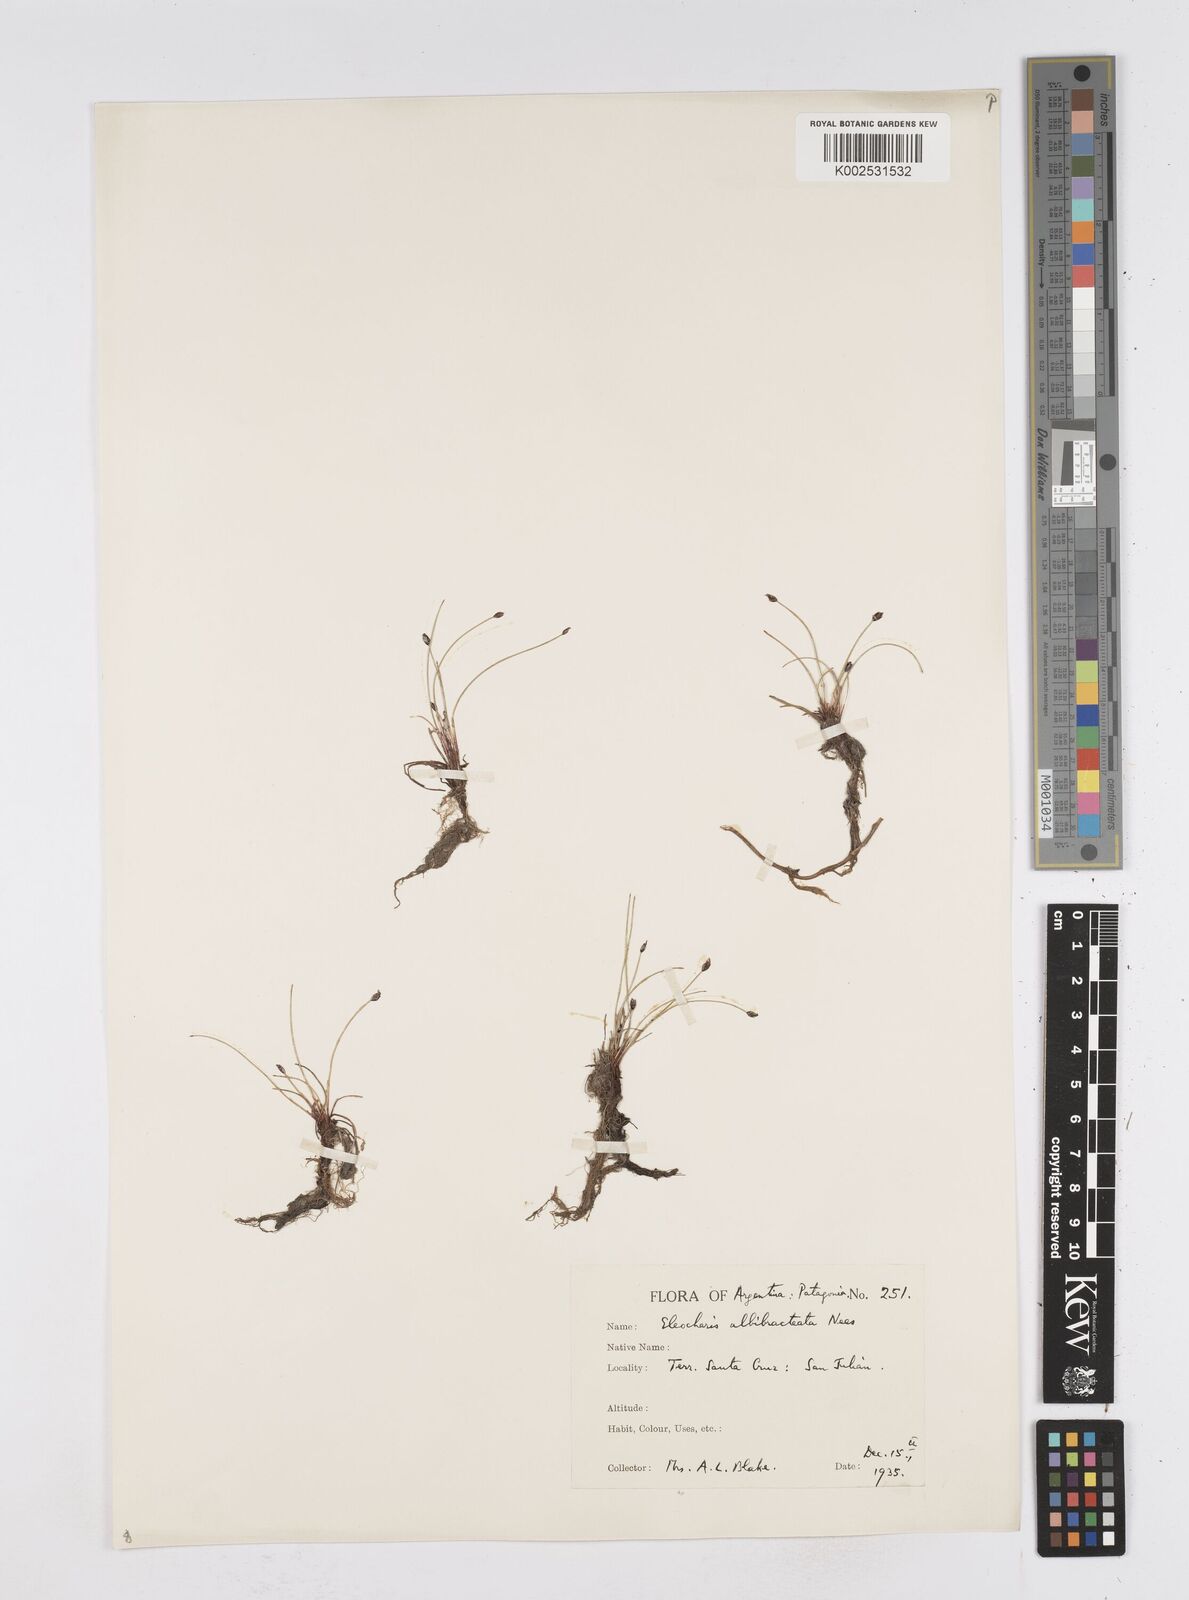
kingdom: Plantae
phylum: Tracheophyta
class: Liliopsida
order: Poales
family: Cyperaceae
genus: Eleocharis
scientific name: Eleocharis albibracteata
